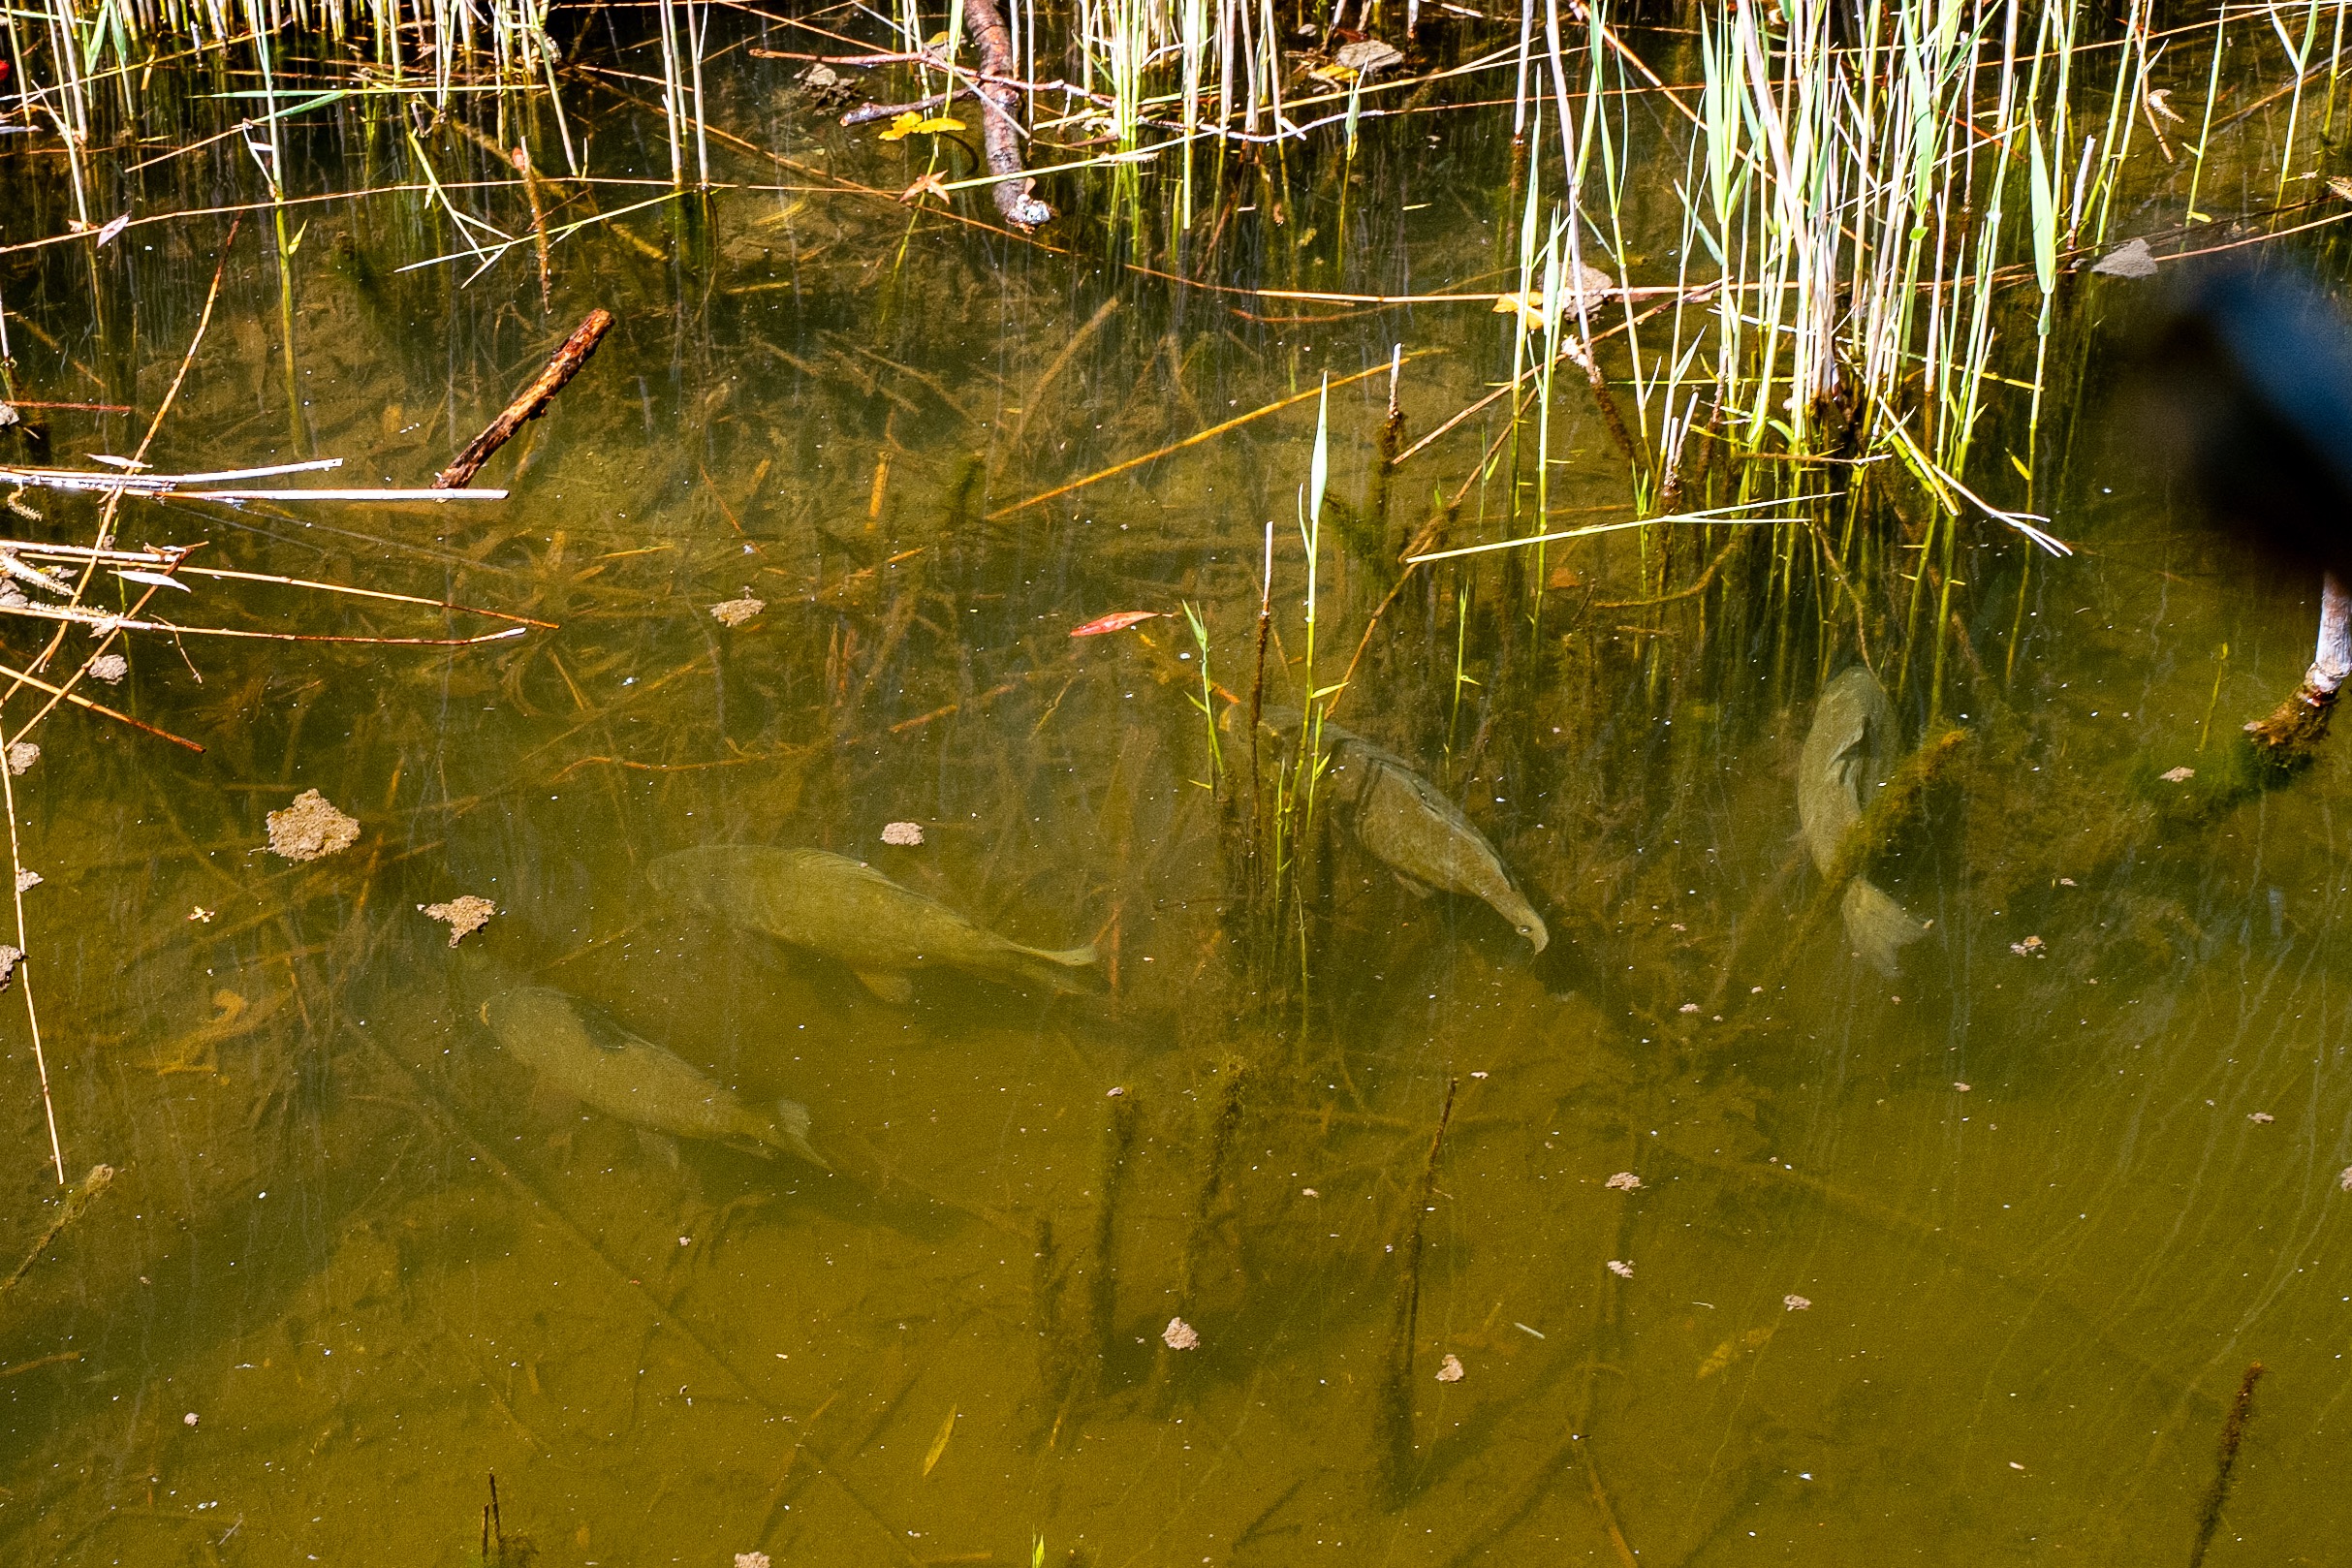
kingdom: Animalia
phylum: Chordata
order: Cypriniformes
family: Cyprinidae
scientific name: Cyprinidae
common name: Karpefamilien
